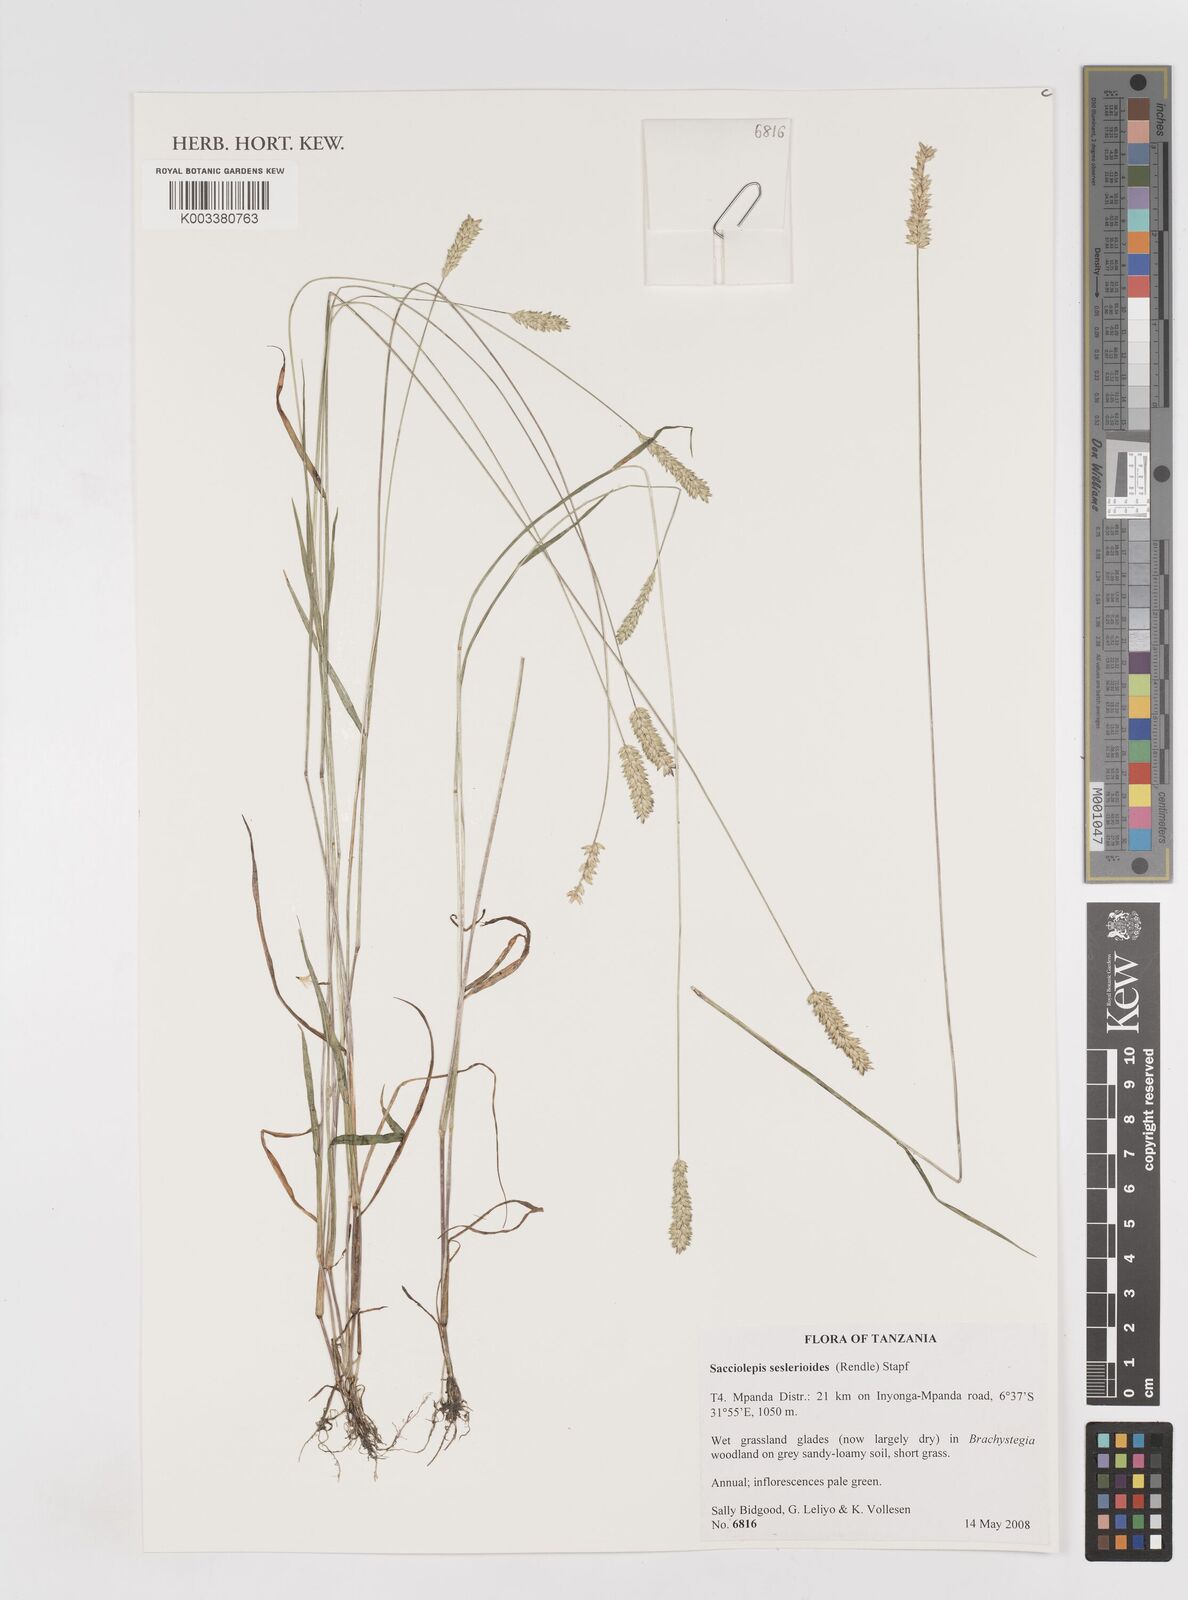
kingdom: Plantae
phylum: Tracheophyta
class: Liliopsida
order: Poales
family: Poaceae
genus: Sacciolepis
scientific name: Sacciolepis seslerioides
